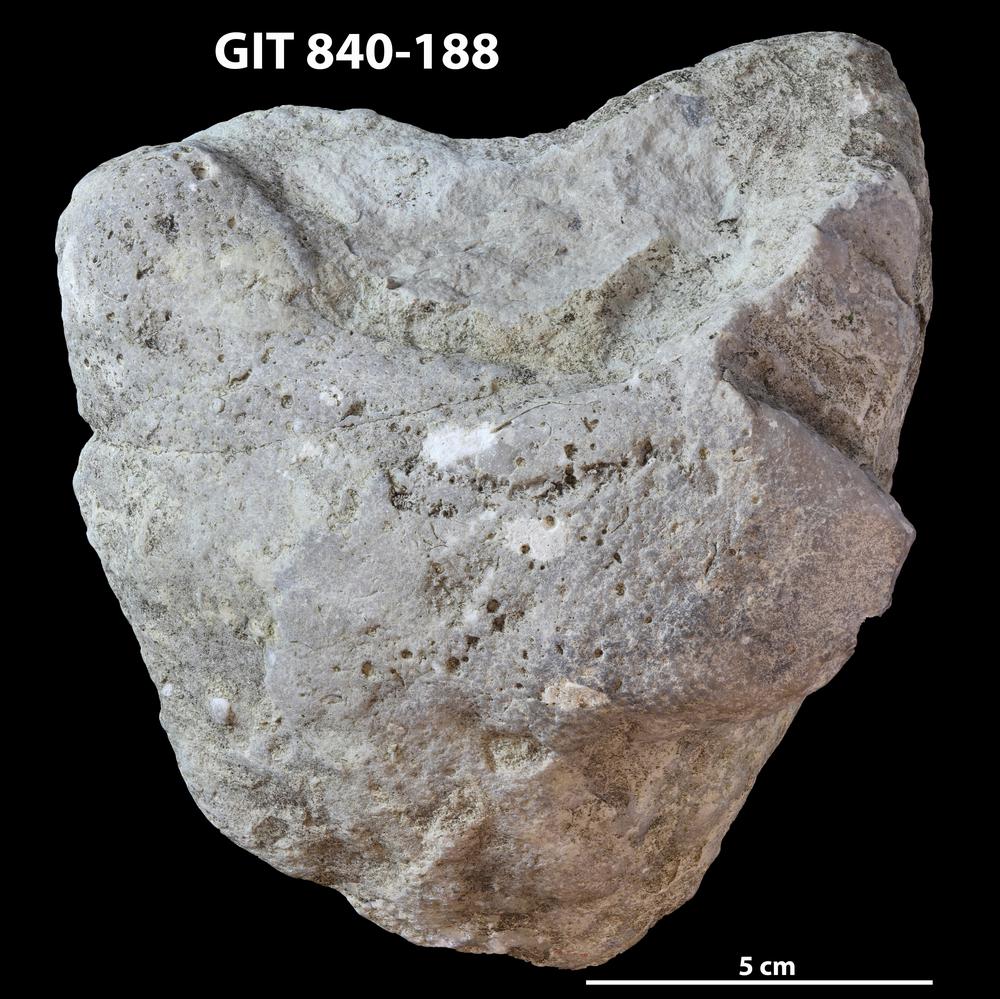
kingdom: Animalia
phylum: Cnidaria
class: Anthozoa
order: Heliolitina
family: Stelliporellidae
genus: Stelliporella
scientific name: Stelliporella
